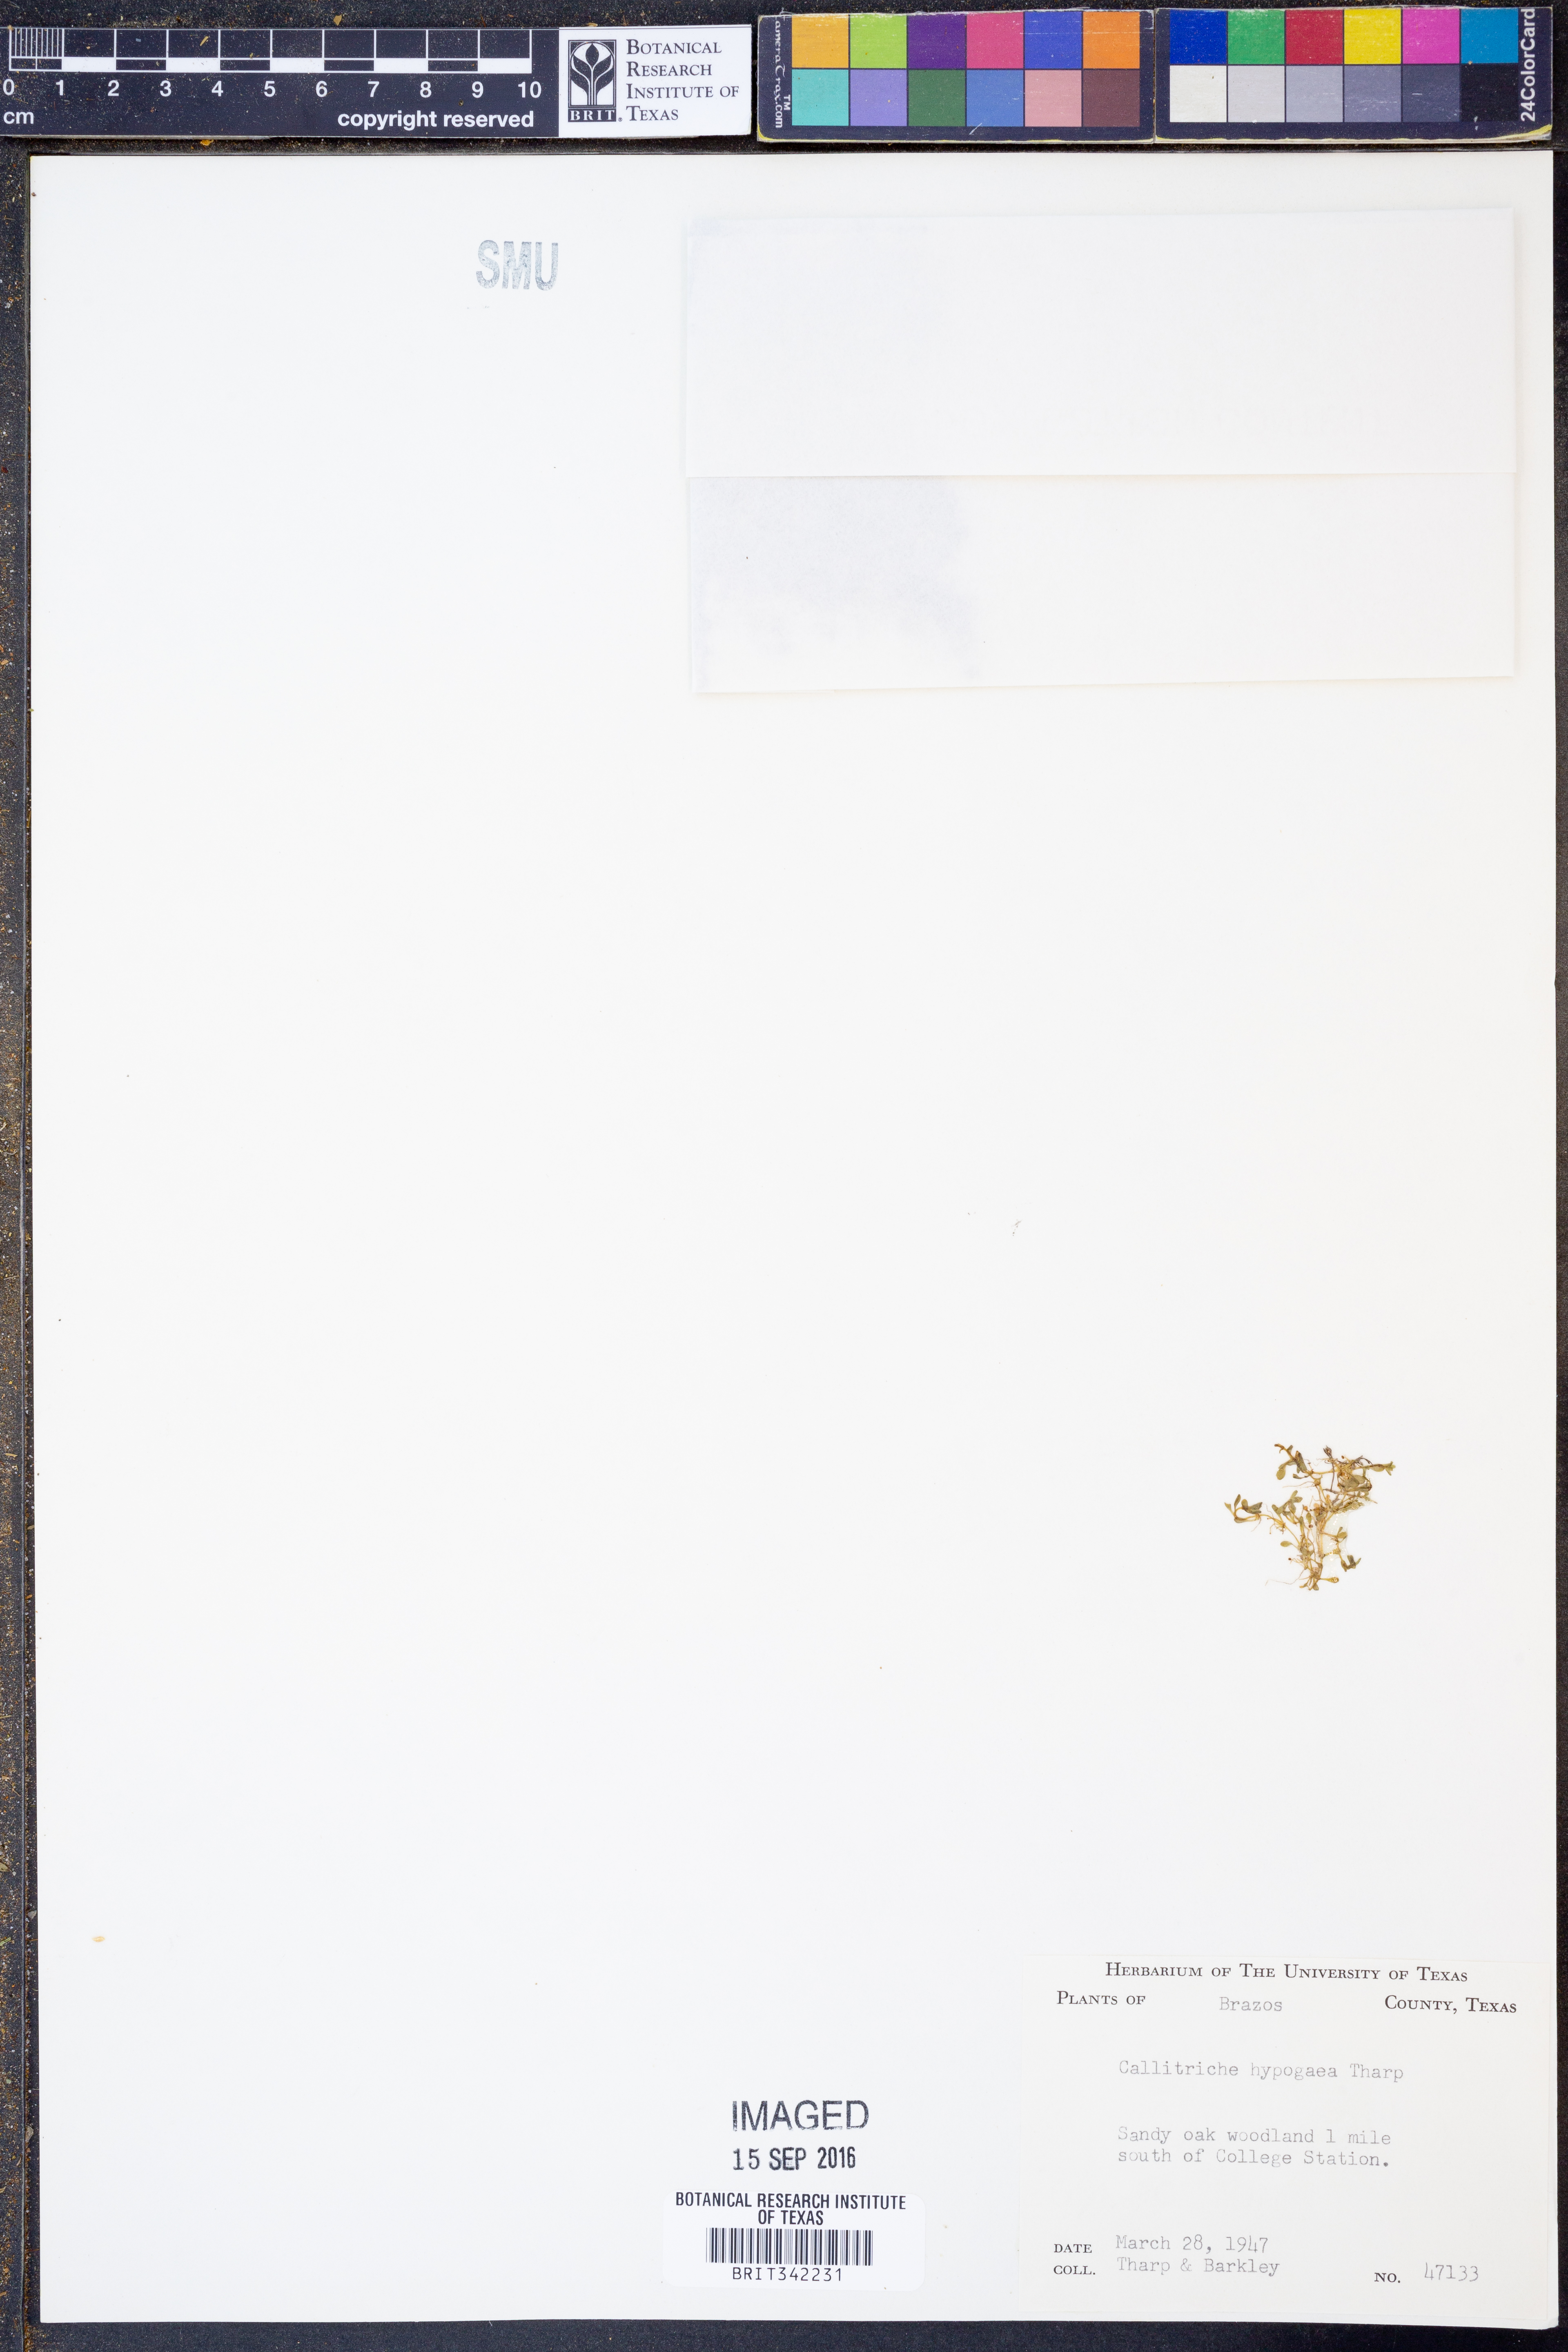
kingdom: Plantae
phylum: Tracheophyta
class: Magnoliopsida
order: Lamiales
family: Plantaginaceae
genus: Callitriche
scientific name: Callitriche
